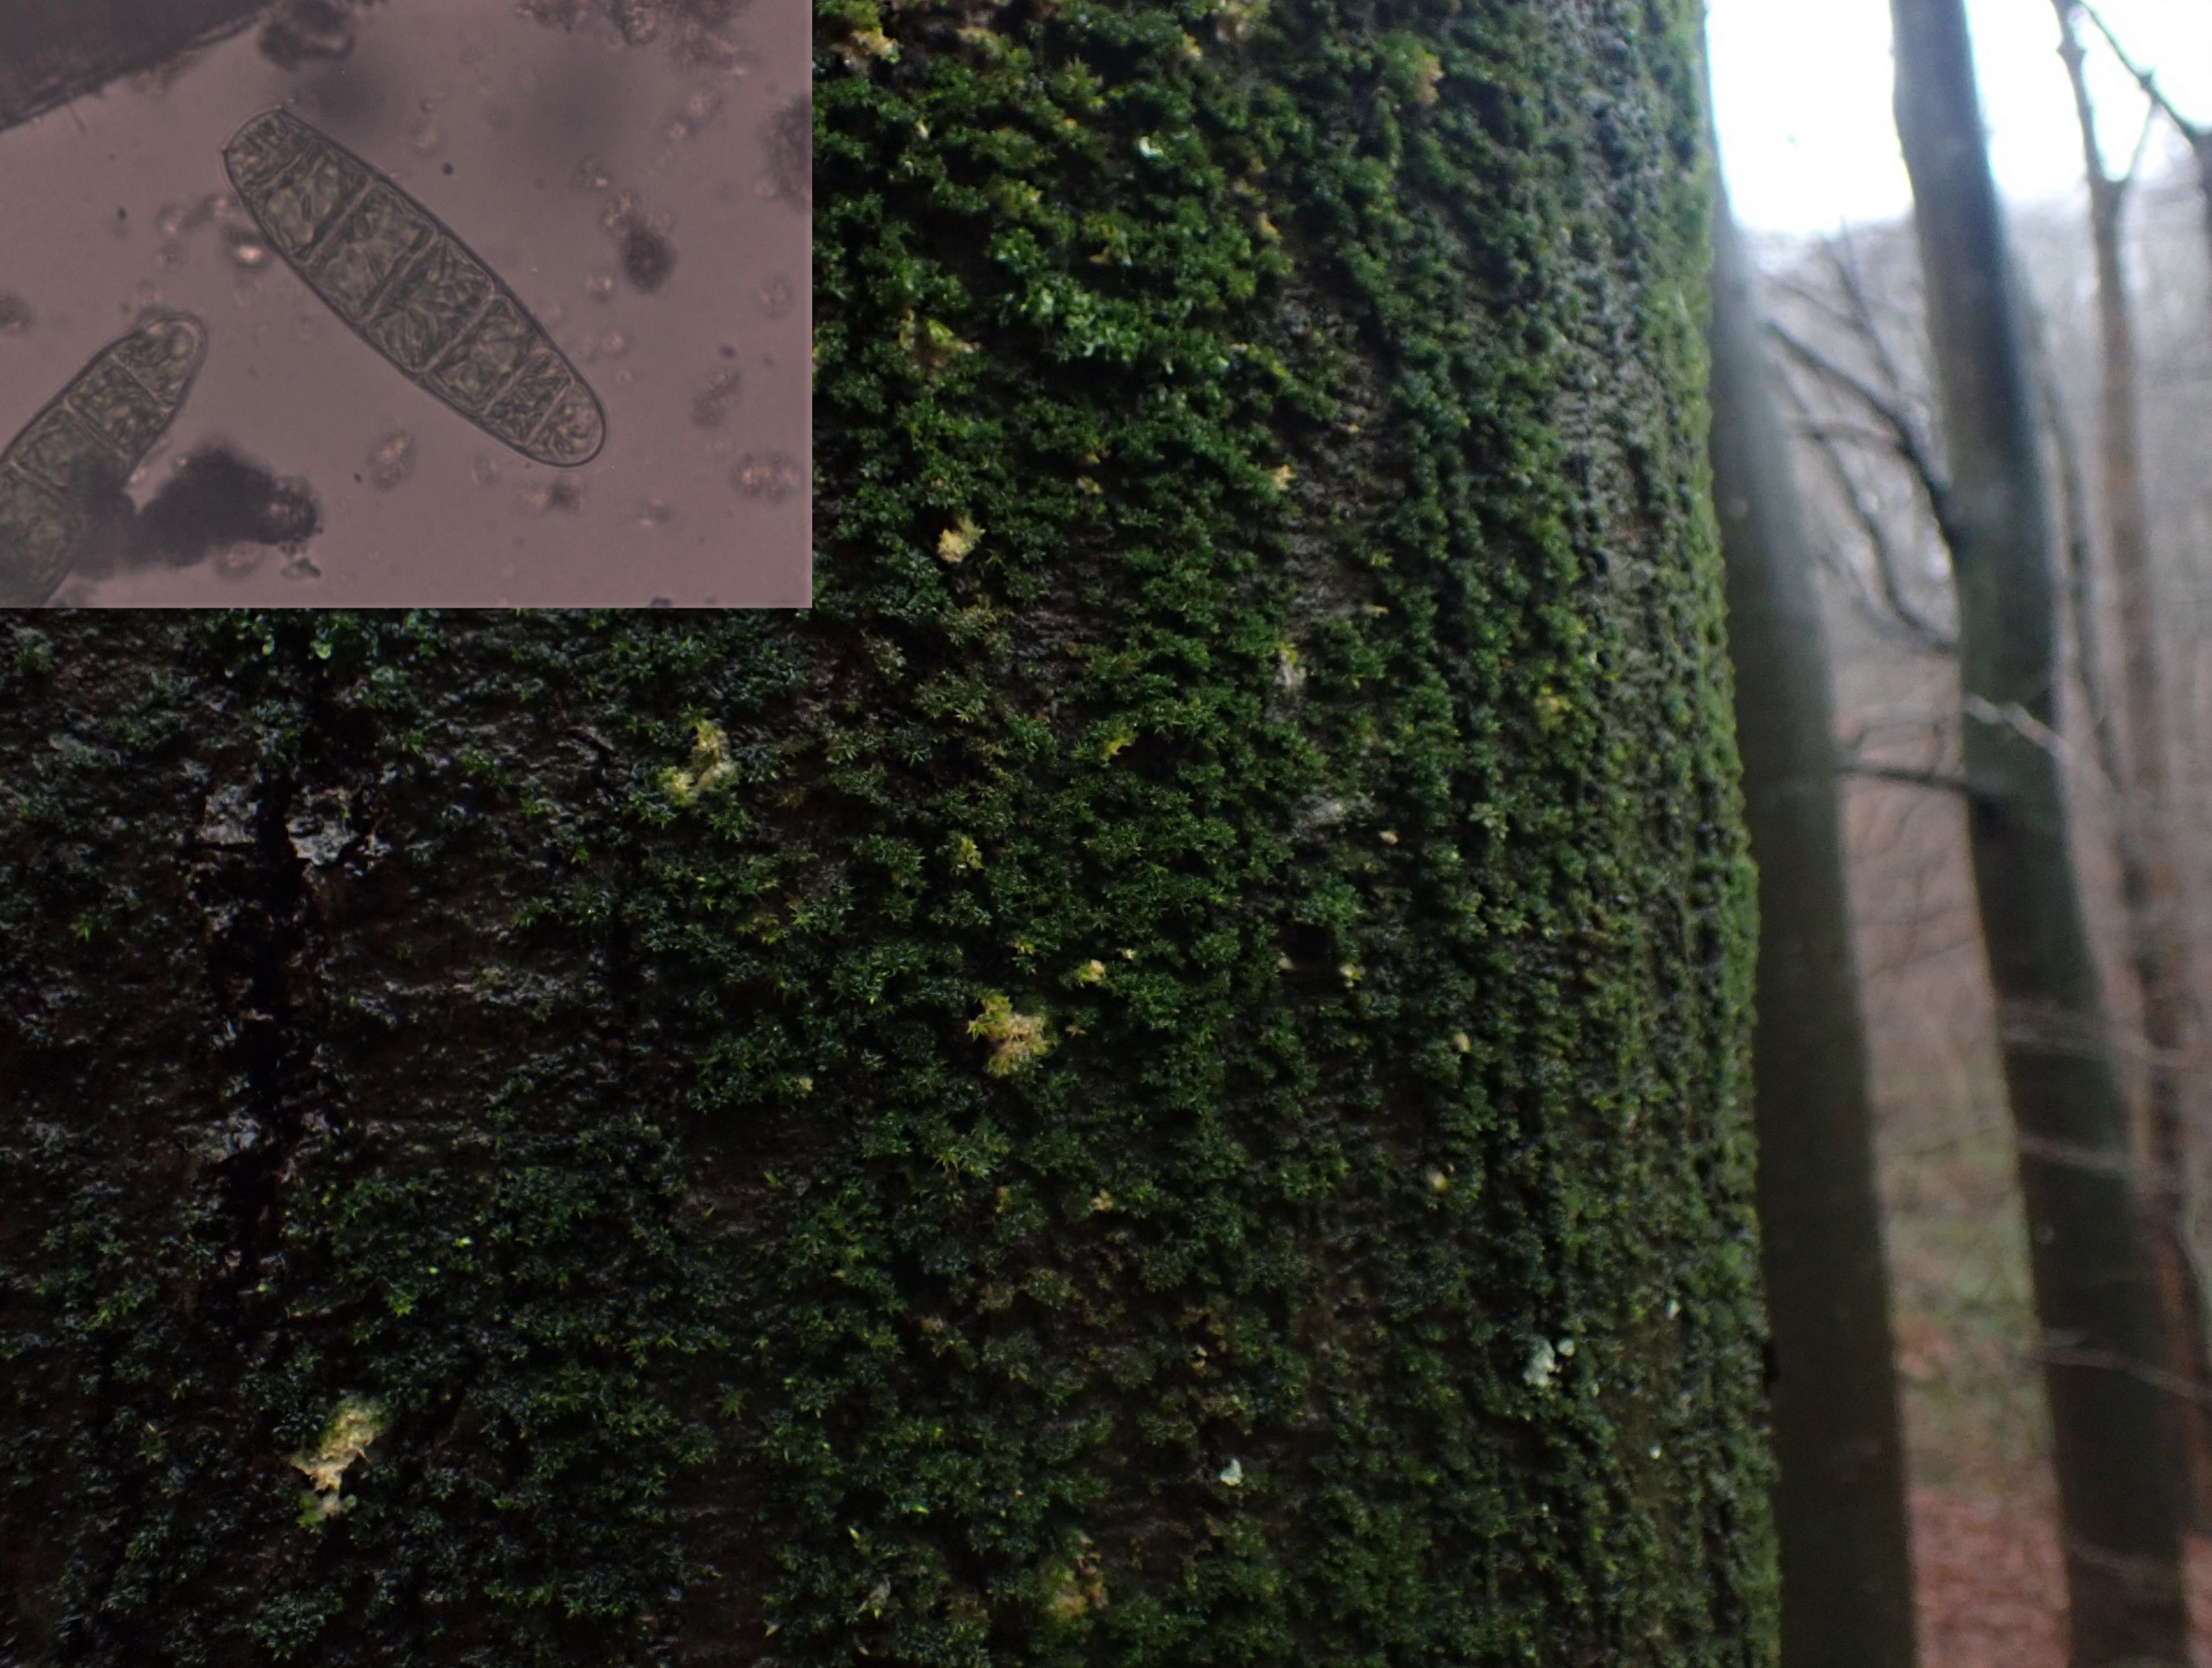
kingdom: Plantae
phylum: Bryophyta
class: Bryopsida
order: Orthotrichales
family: Orthotrichaceae
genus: Zygodon
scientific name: Zygodon conoideus
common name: Tand-køllemos
